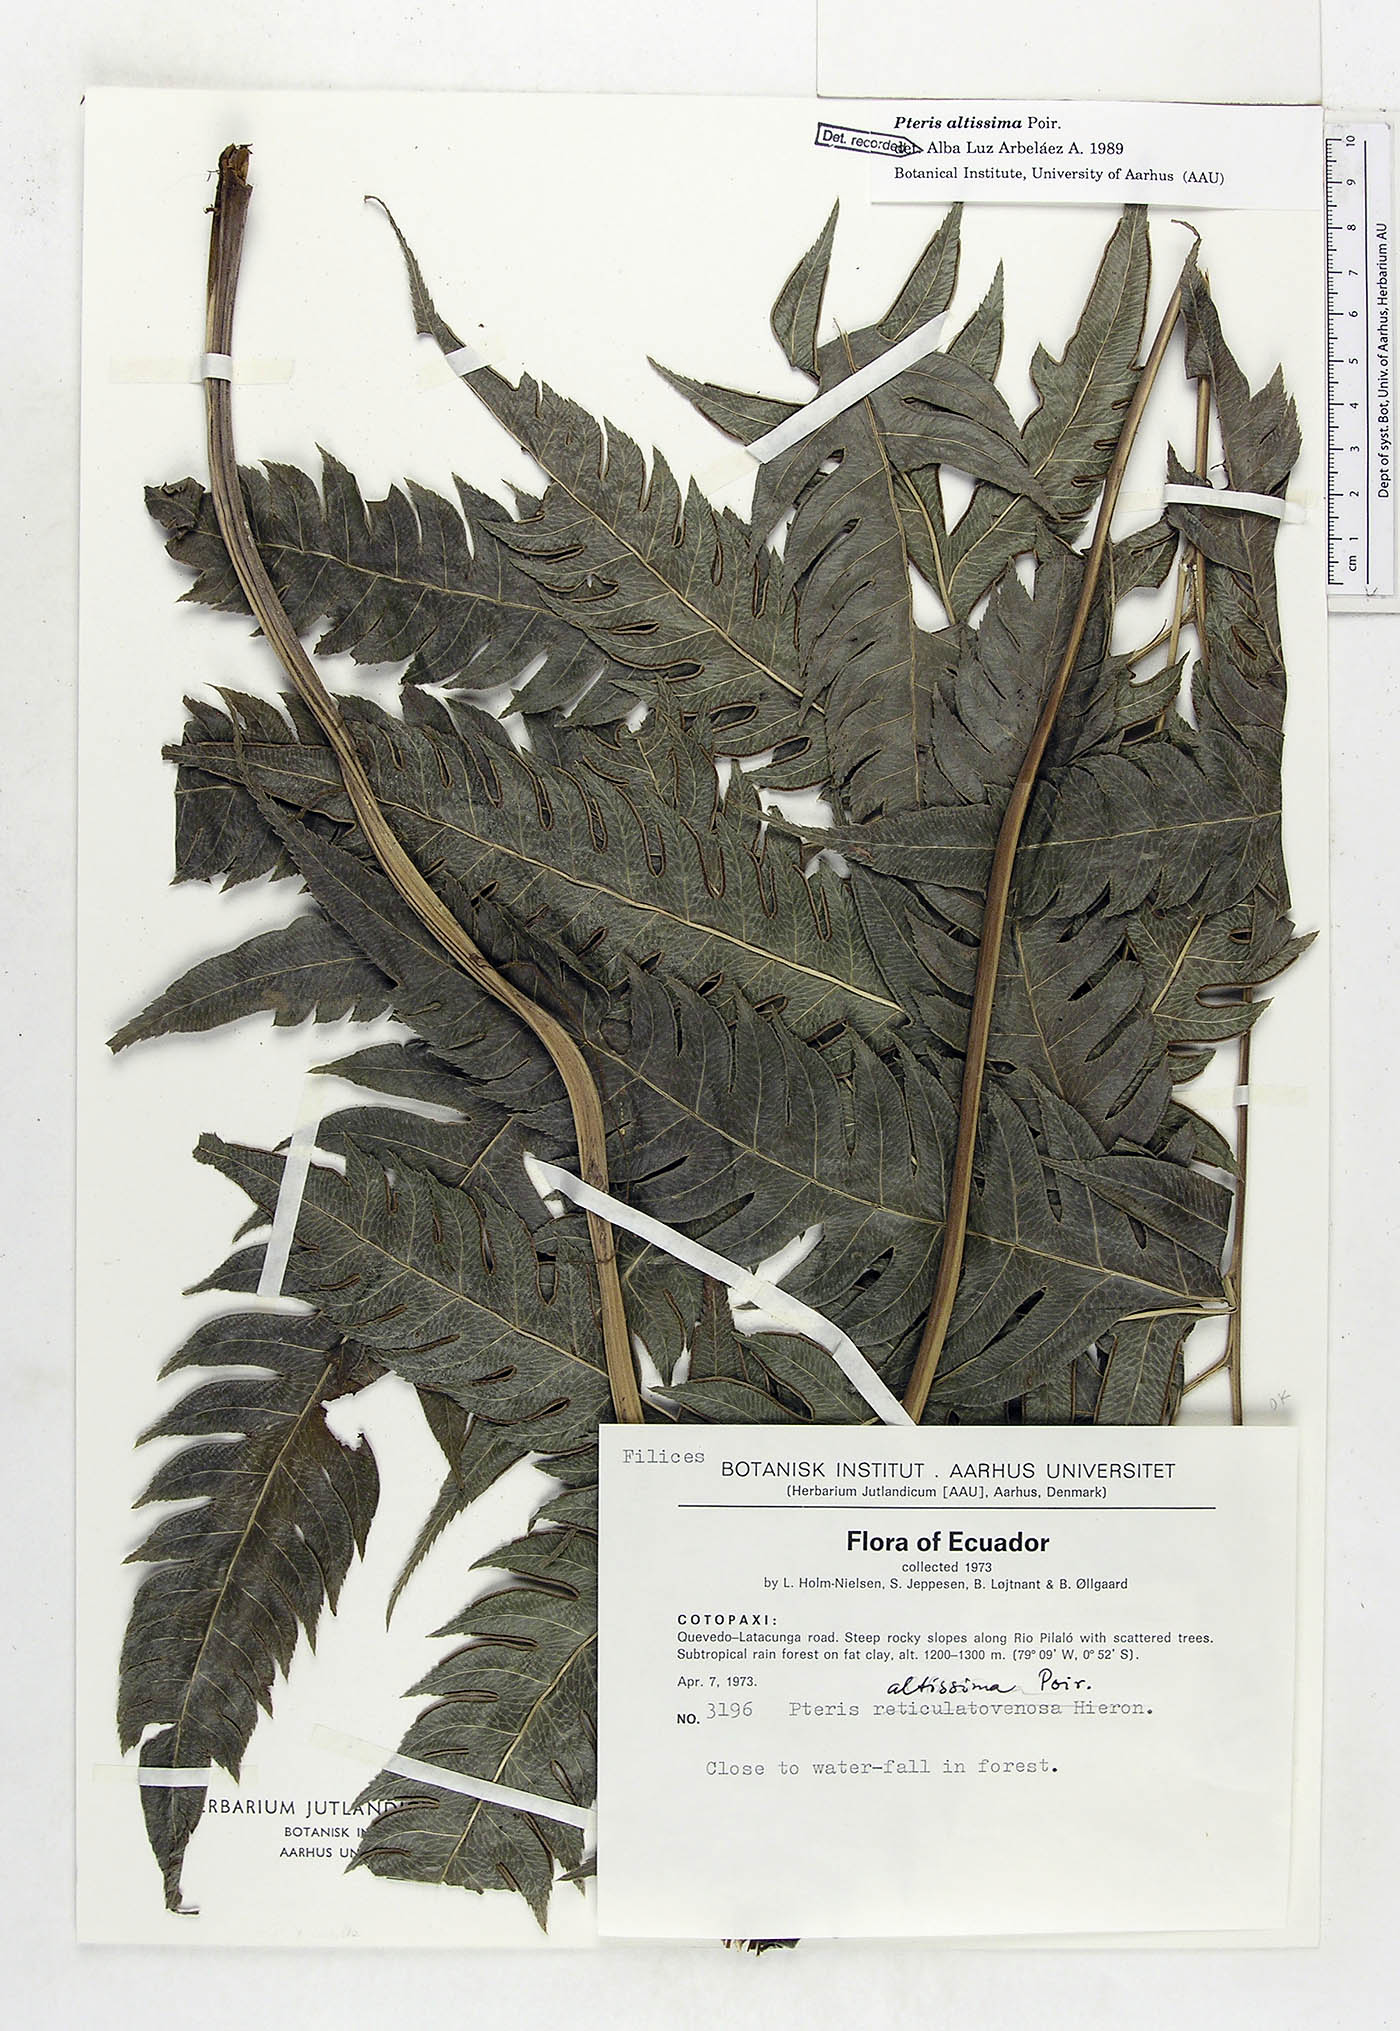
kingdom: Plantae
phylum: Tracheophyta
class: Polypodiopsida
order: Polypodiales
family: Pteridaceae
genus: Pteris
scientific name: Pteris altissima
